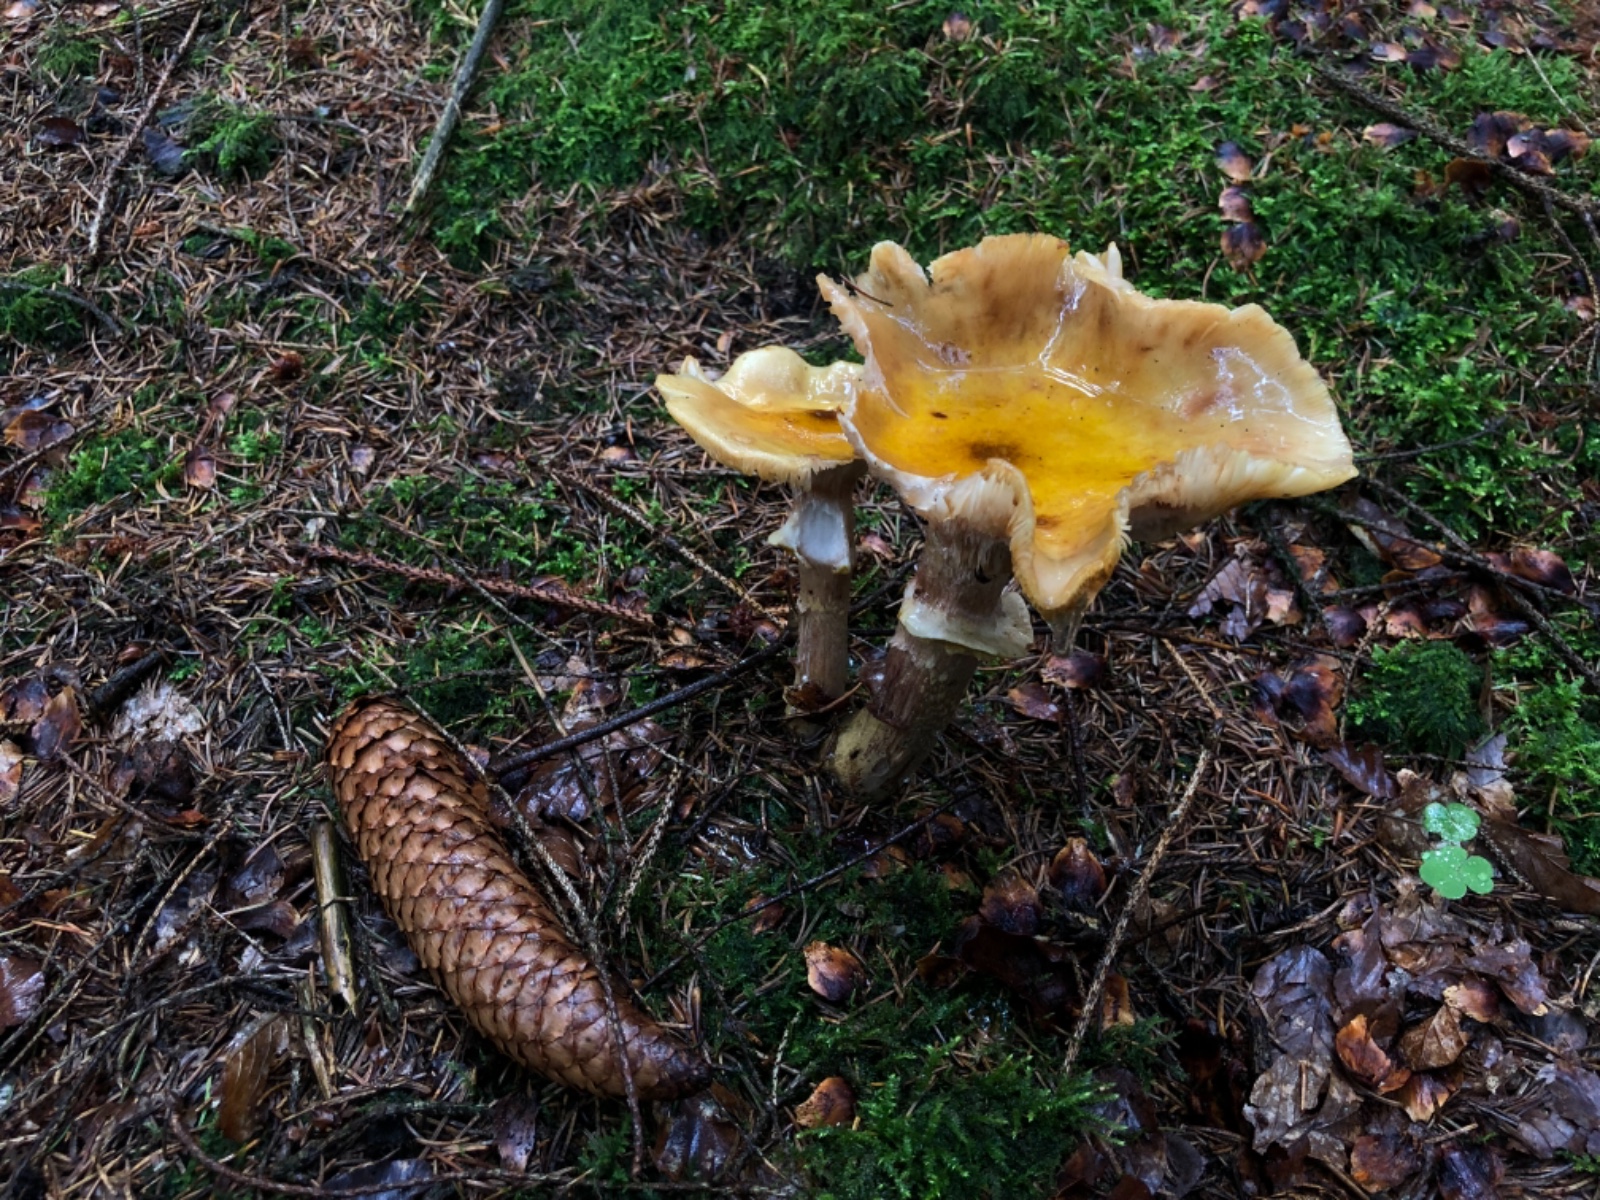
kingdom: Fungi
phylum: Basidiomycota
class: Agaricomycetes
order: Agaricales
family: Physalacriaceae
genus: Armillaria
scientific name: Armillaria lutea
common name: køllestokket honningsvamp
